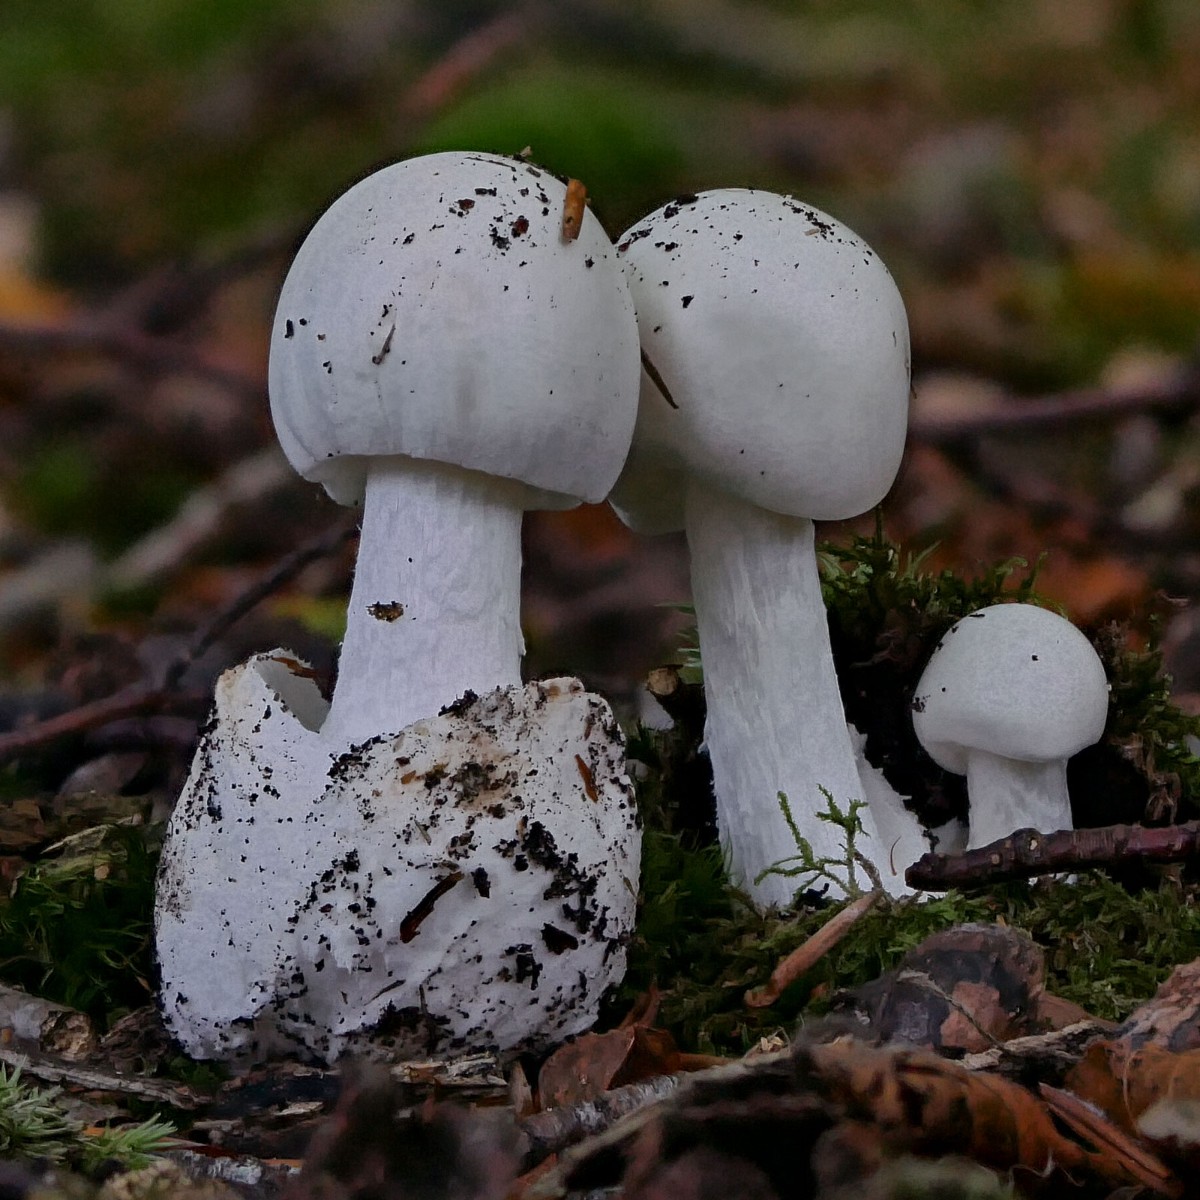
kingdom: Fungi
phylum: Basidiomycota
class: Agaricomycetes
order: Agaricales
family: Amanitaceae
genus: Amanita
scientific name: Amanita virosa
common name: snehvid fluesvamp
